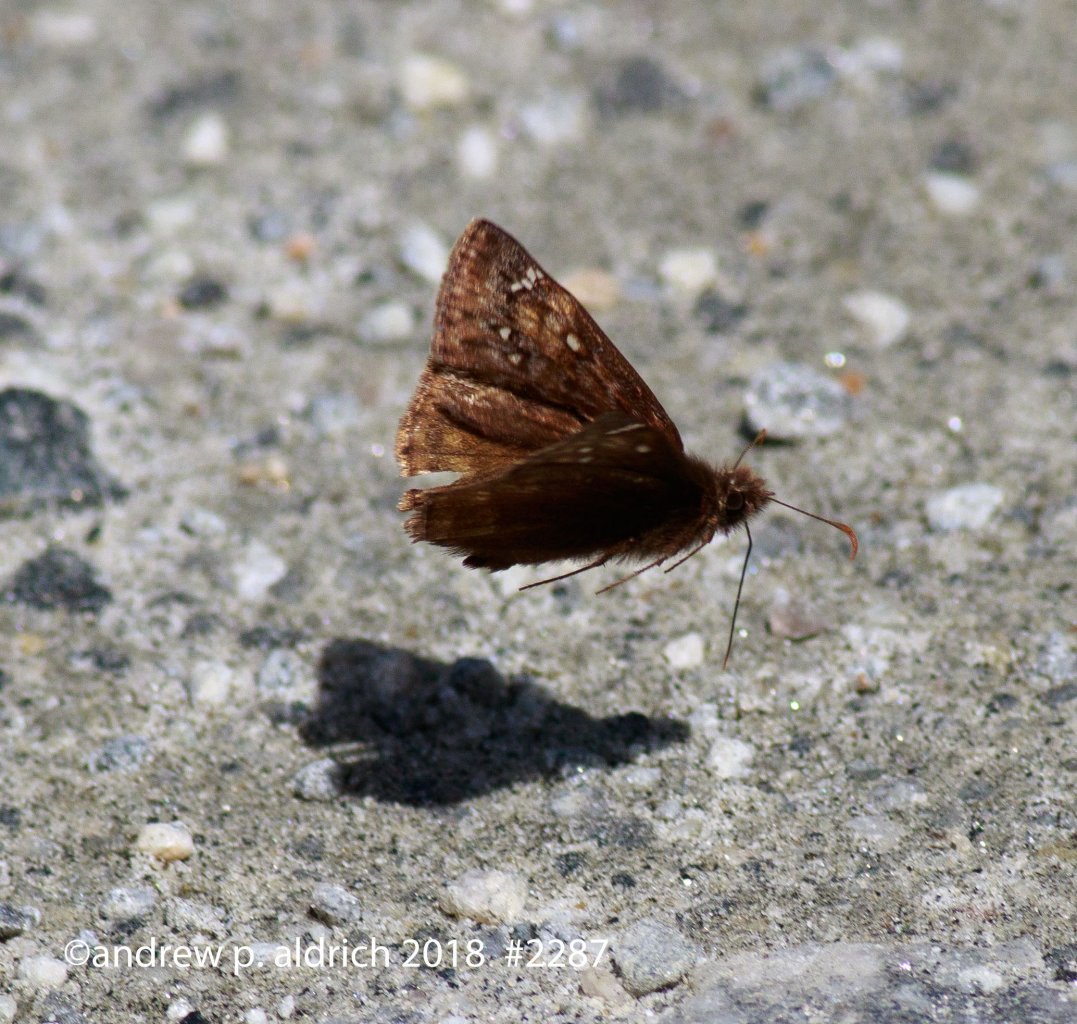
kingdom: Animalia
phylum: Arthropoda
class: Insecta
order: Lepidoptera
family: Hesperiidae
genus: Gesta
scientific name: Gesta
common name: Juvenal's Duskywing
